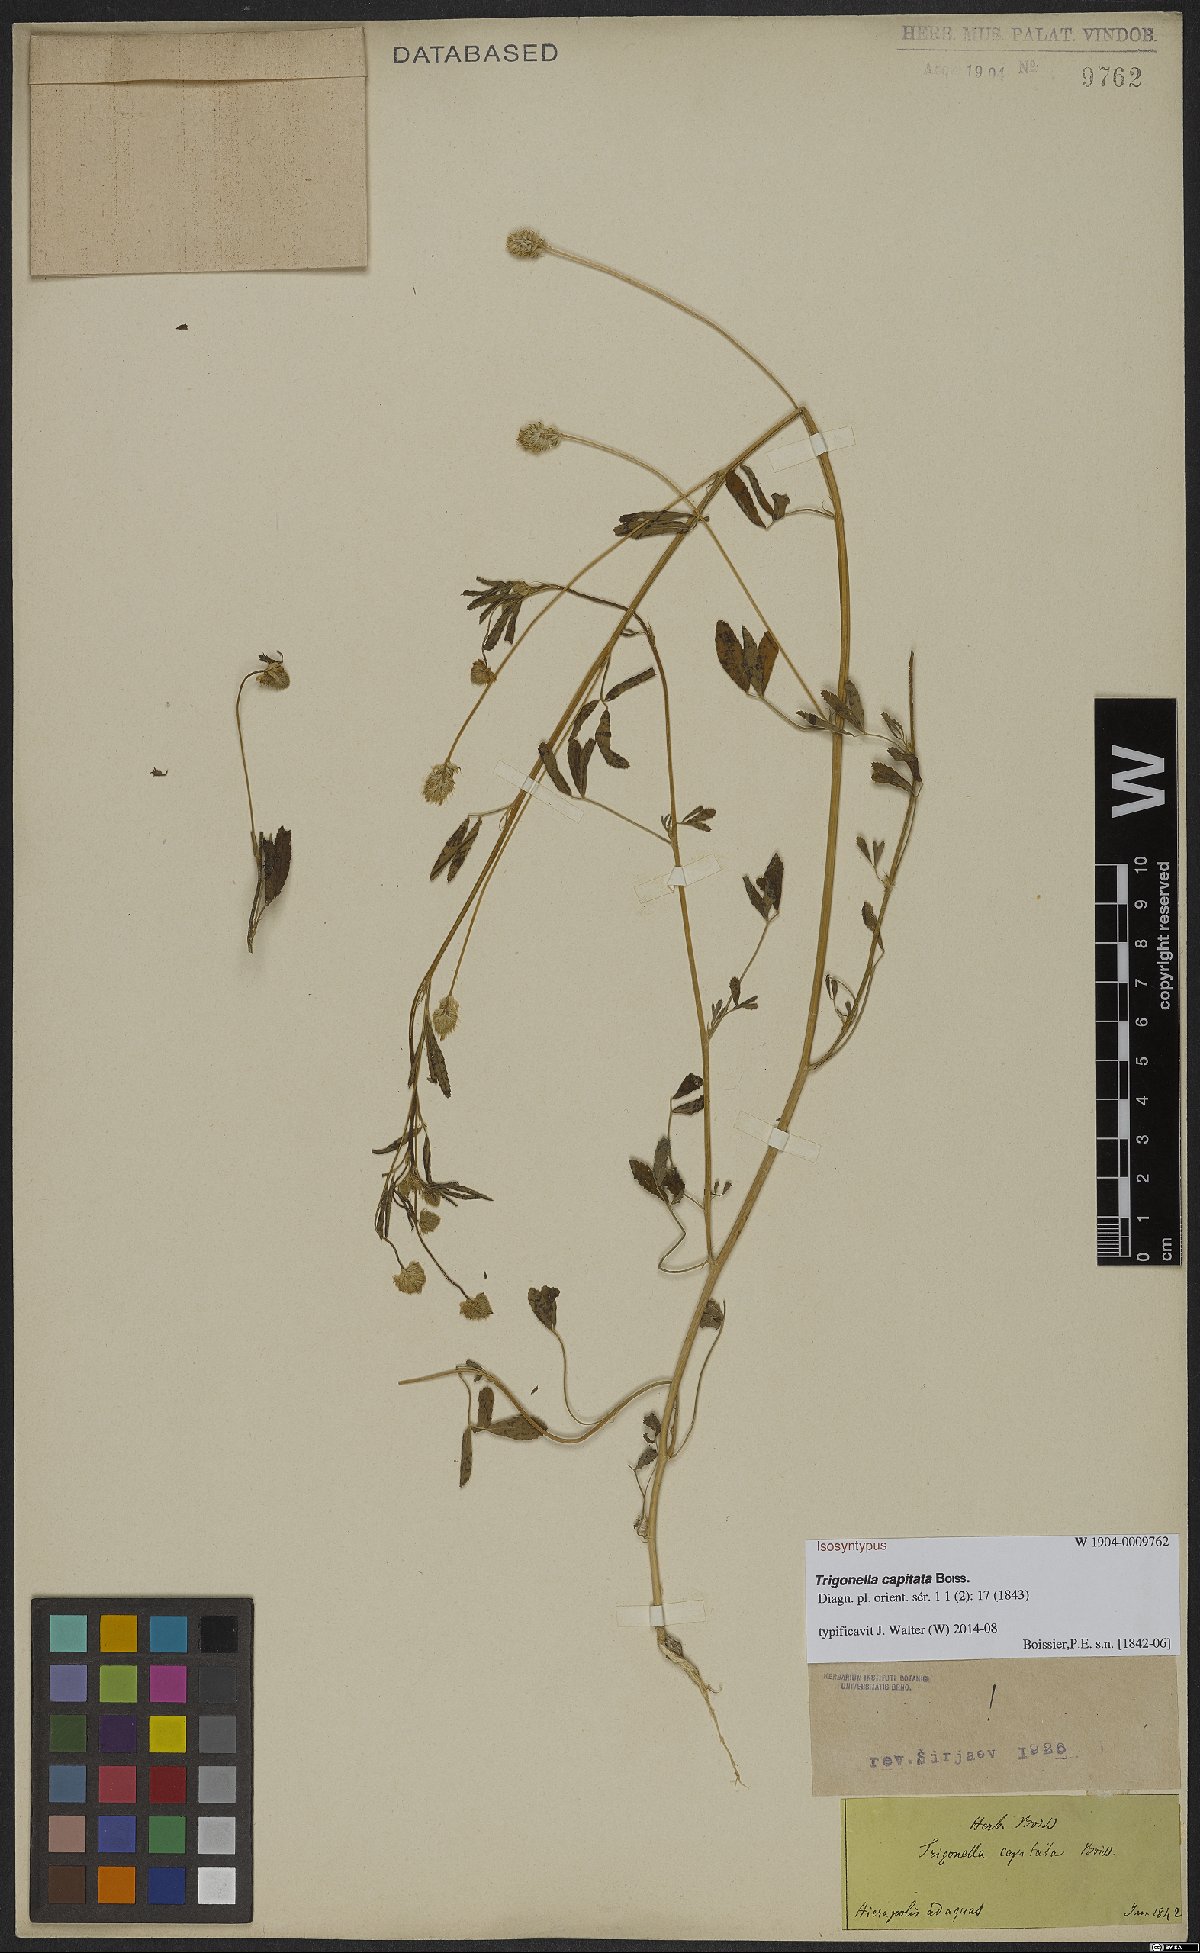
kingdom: Plantae
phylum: Tracheophyta
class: Magnoliopsida
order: Fabales
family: Fabaceae
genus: Trigonella
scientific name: Trigonella capitata
